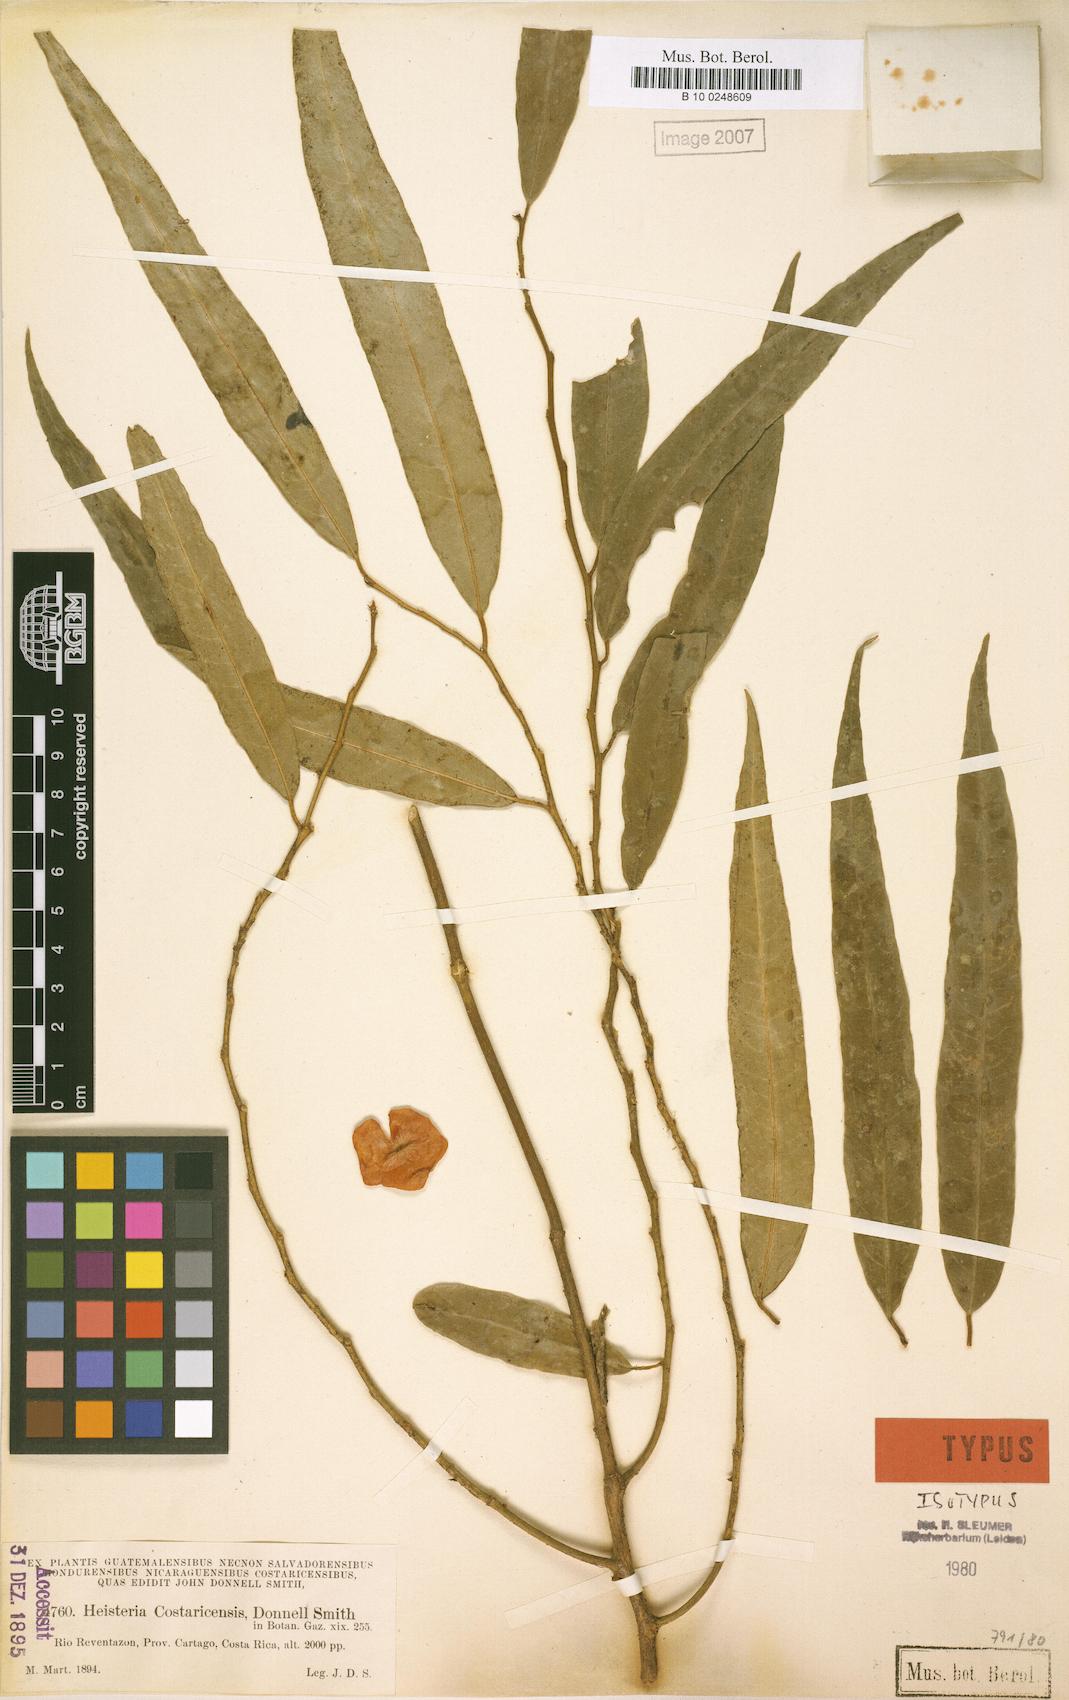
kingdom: Plantae
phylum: Tracheophyta
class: Magnoliopsida
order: Santalales
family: Erythropalaceae
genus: Heisteria
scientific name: Heisteria macrophylla
